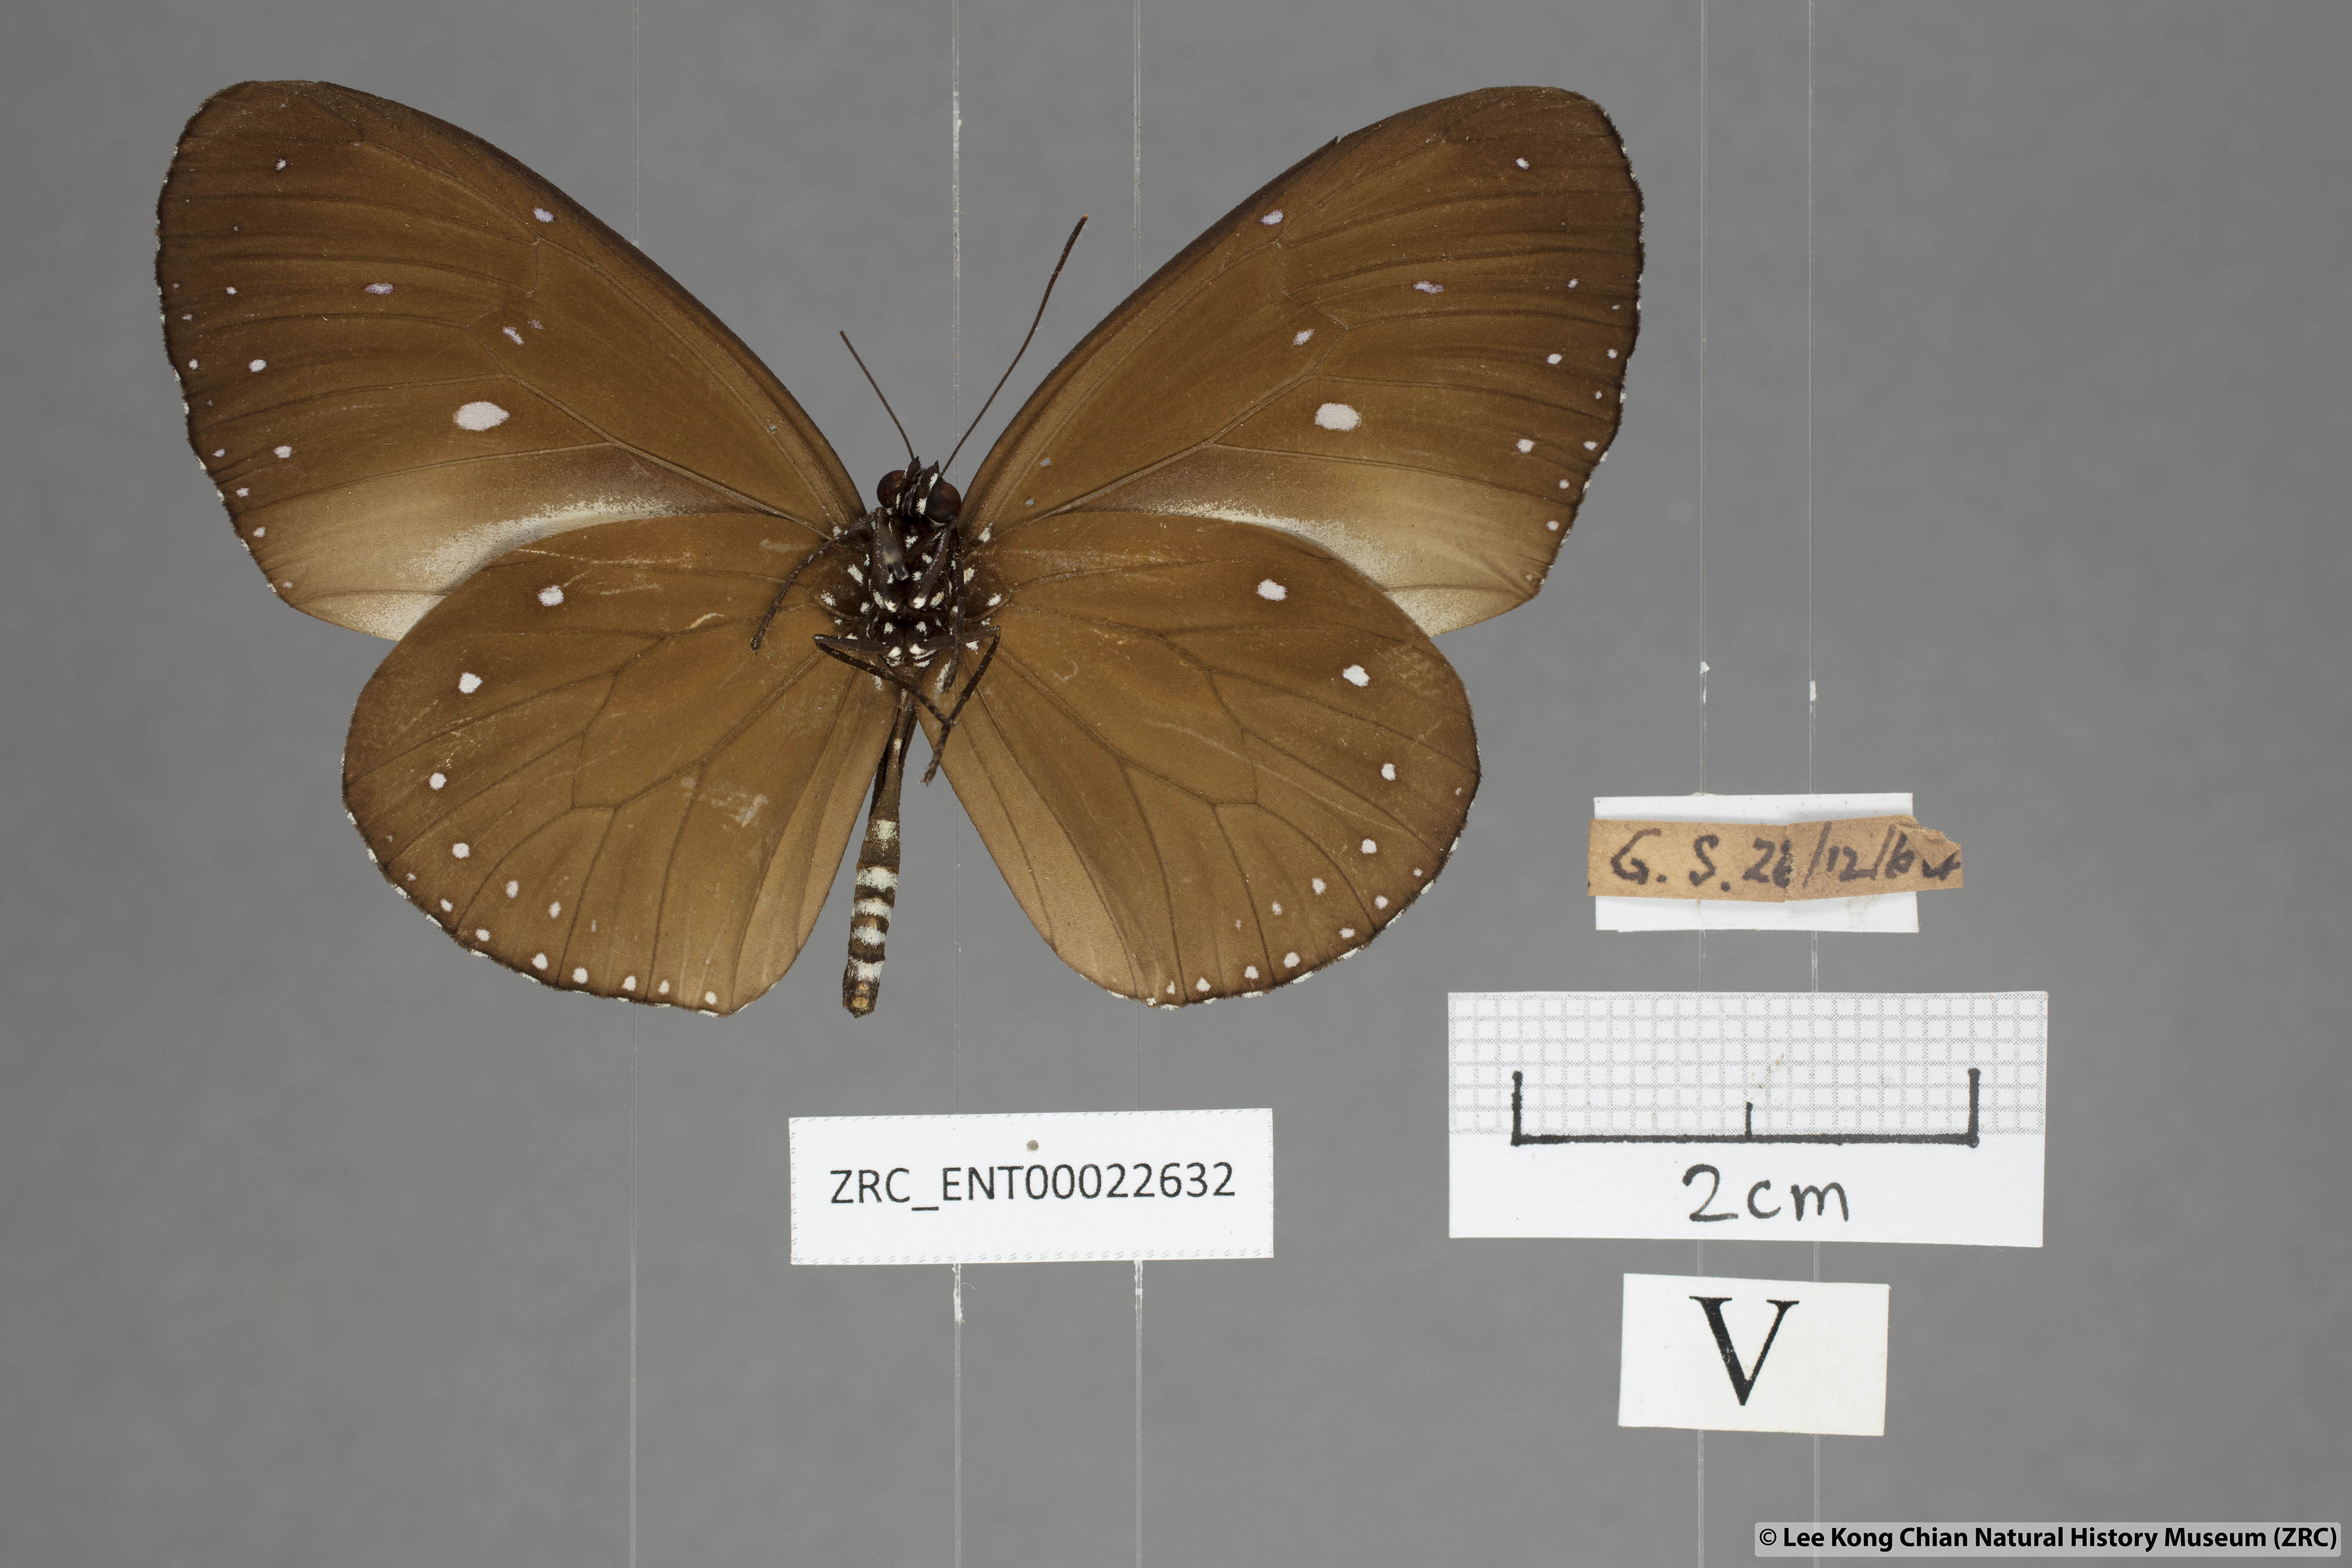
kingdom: Animalia
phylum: Arthropoda
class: Insecta
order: Lepidoptera
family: Nymphalidae
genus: Euploea
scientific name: Euploea tulliolus
